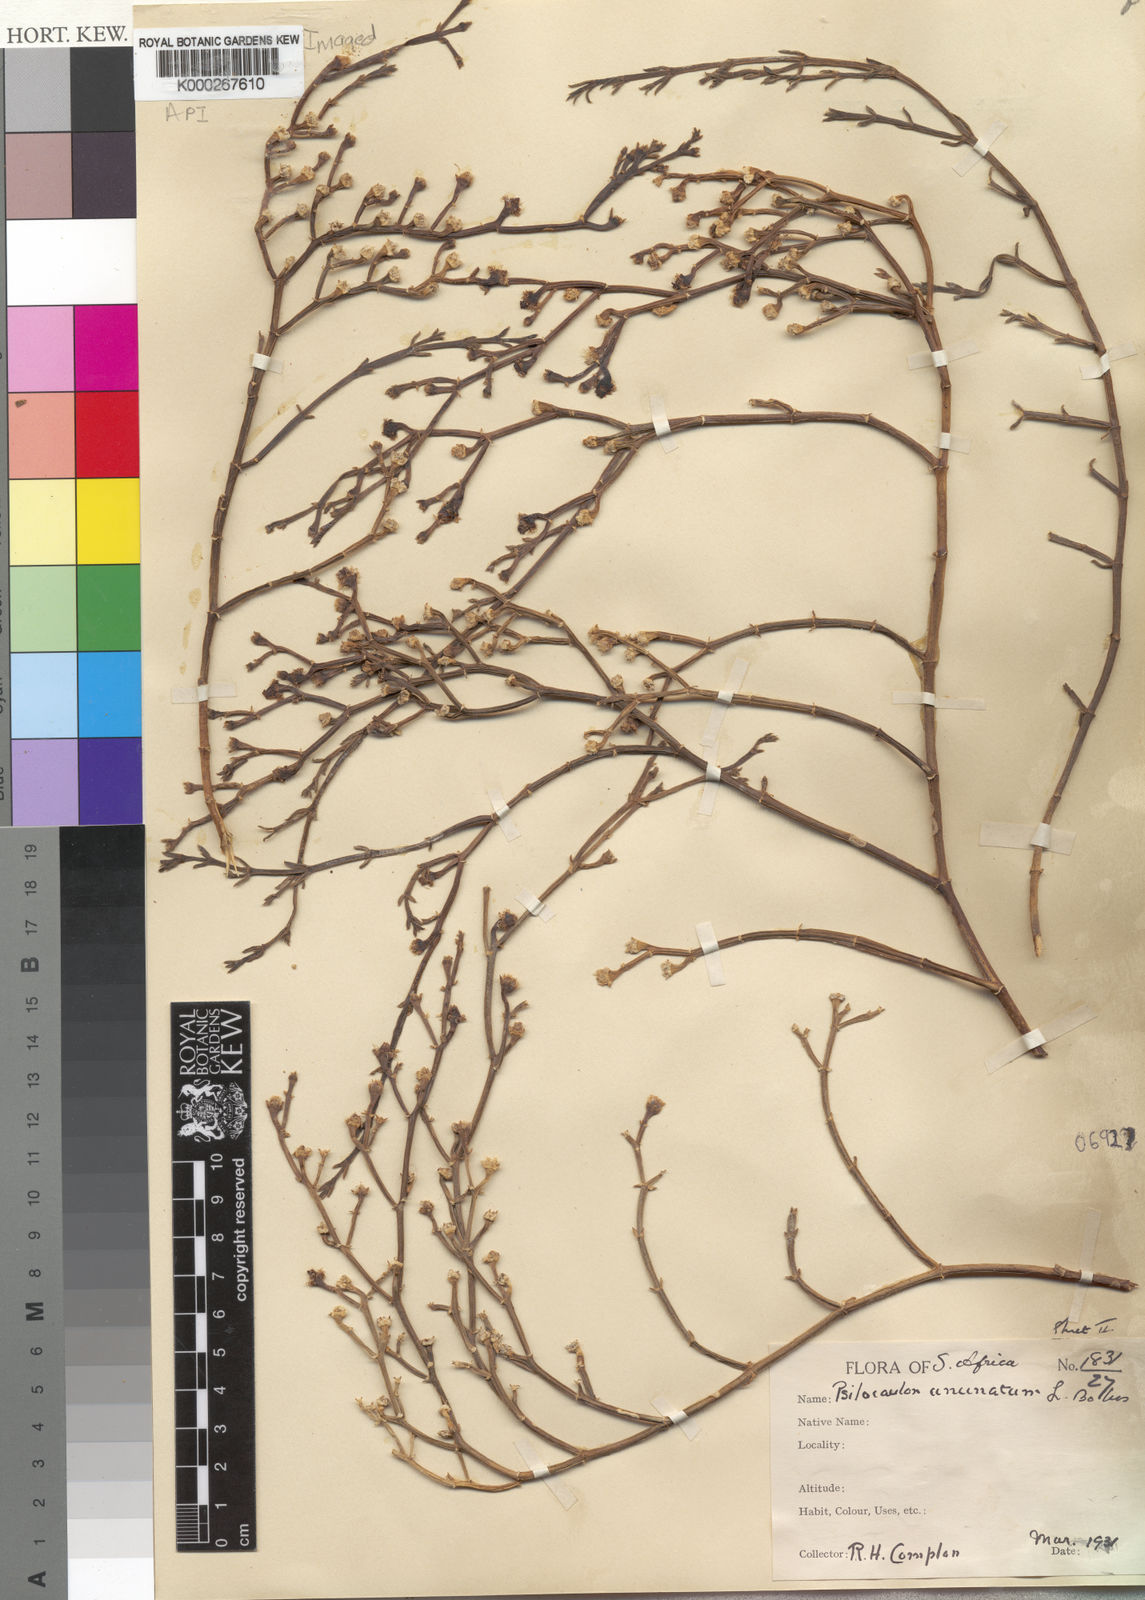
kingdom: Plantae
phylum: Tracheophyta
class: Magnoliopsida
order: Caryophyllales
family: Aizoaceae
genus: Mesembryanthemum
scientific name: Mesembryanthemum coriarium
